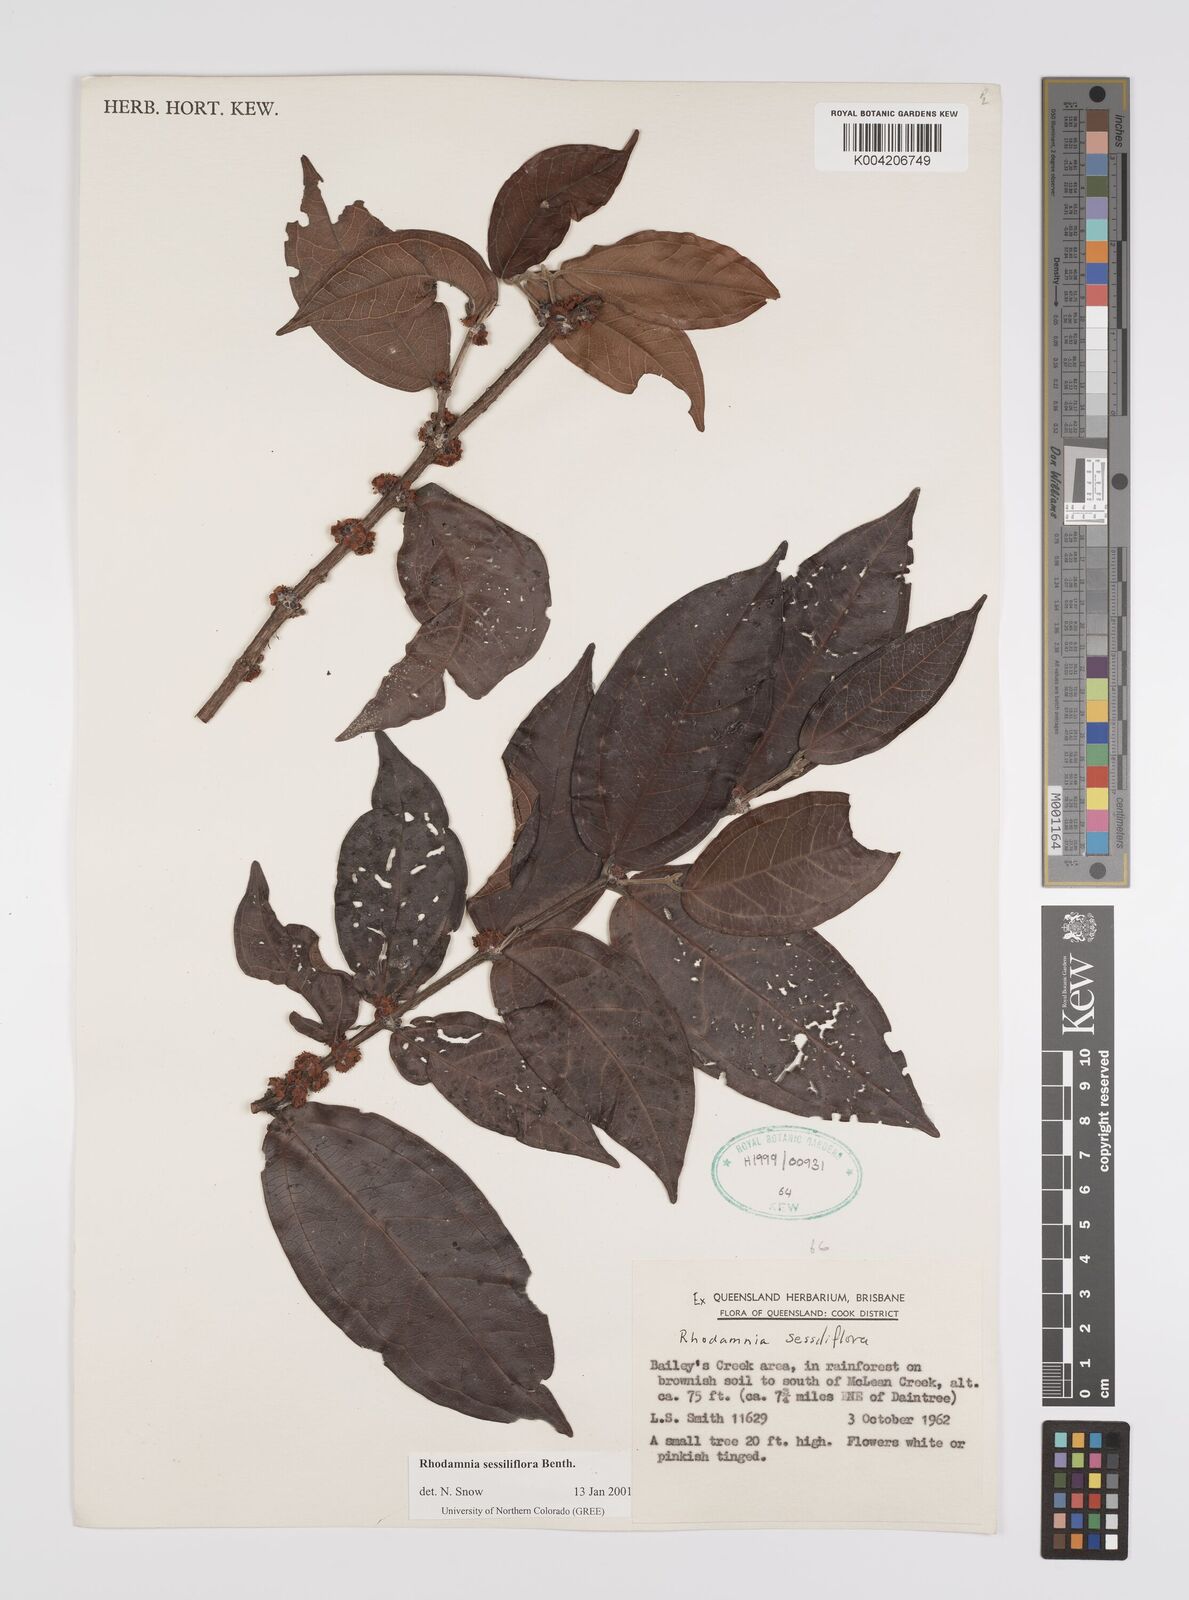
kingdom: Plantae
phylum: Tracheophyta
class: Magnoliopsida
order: Myrtales
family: Myrtaceae
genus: Rhodamnia
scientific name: Rhodamnia sessiliflora
